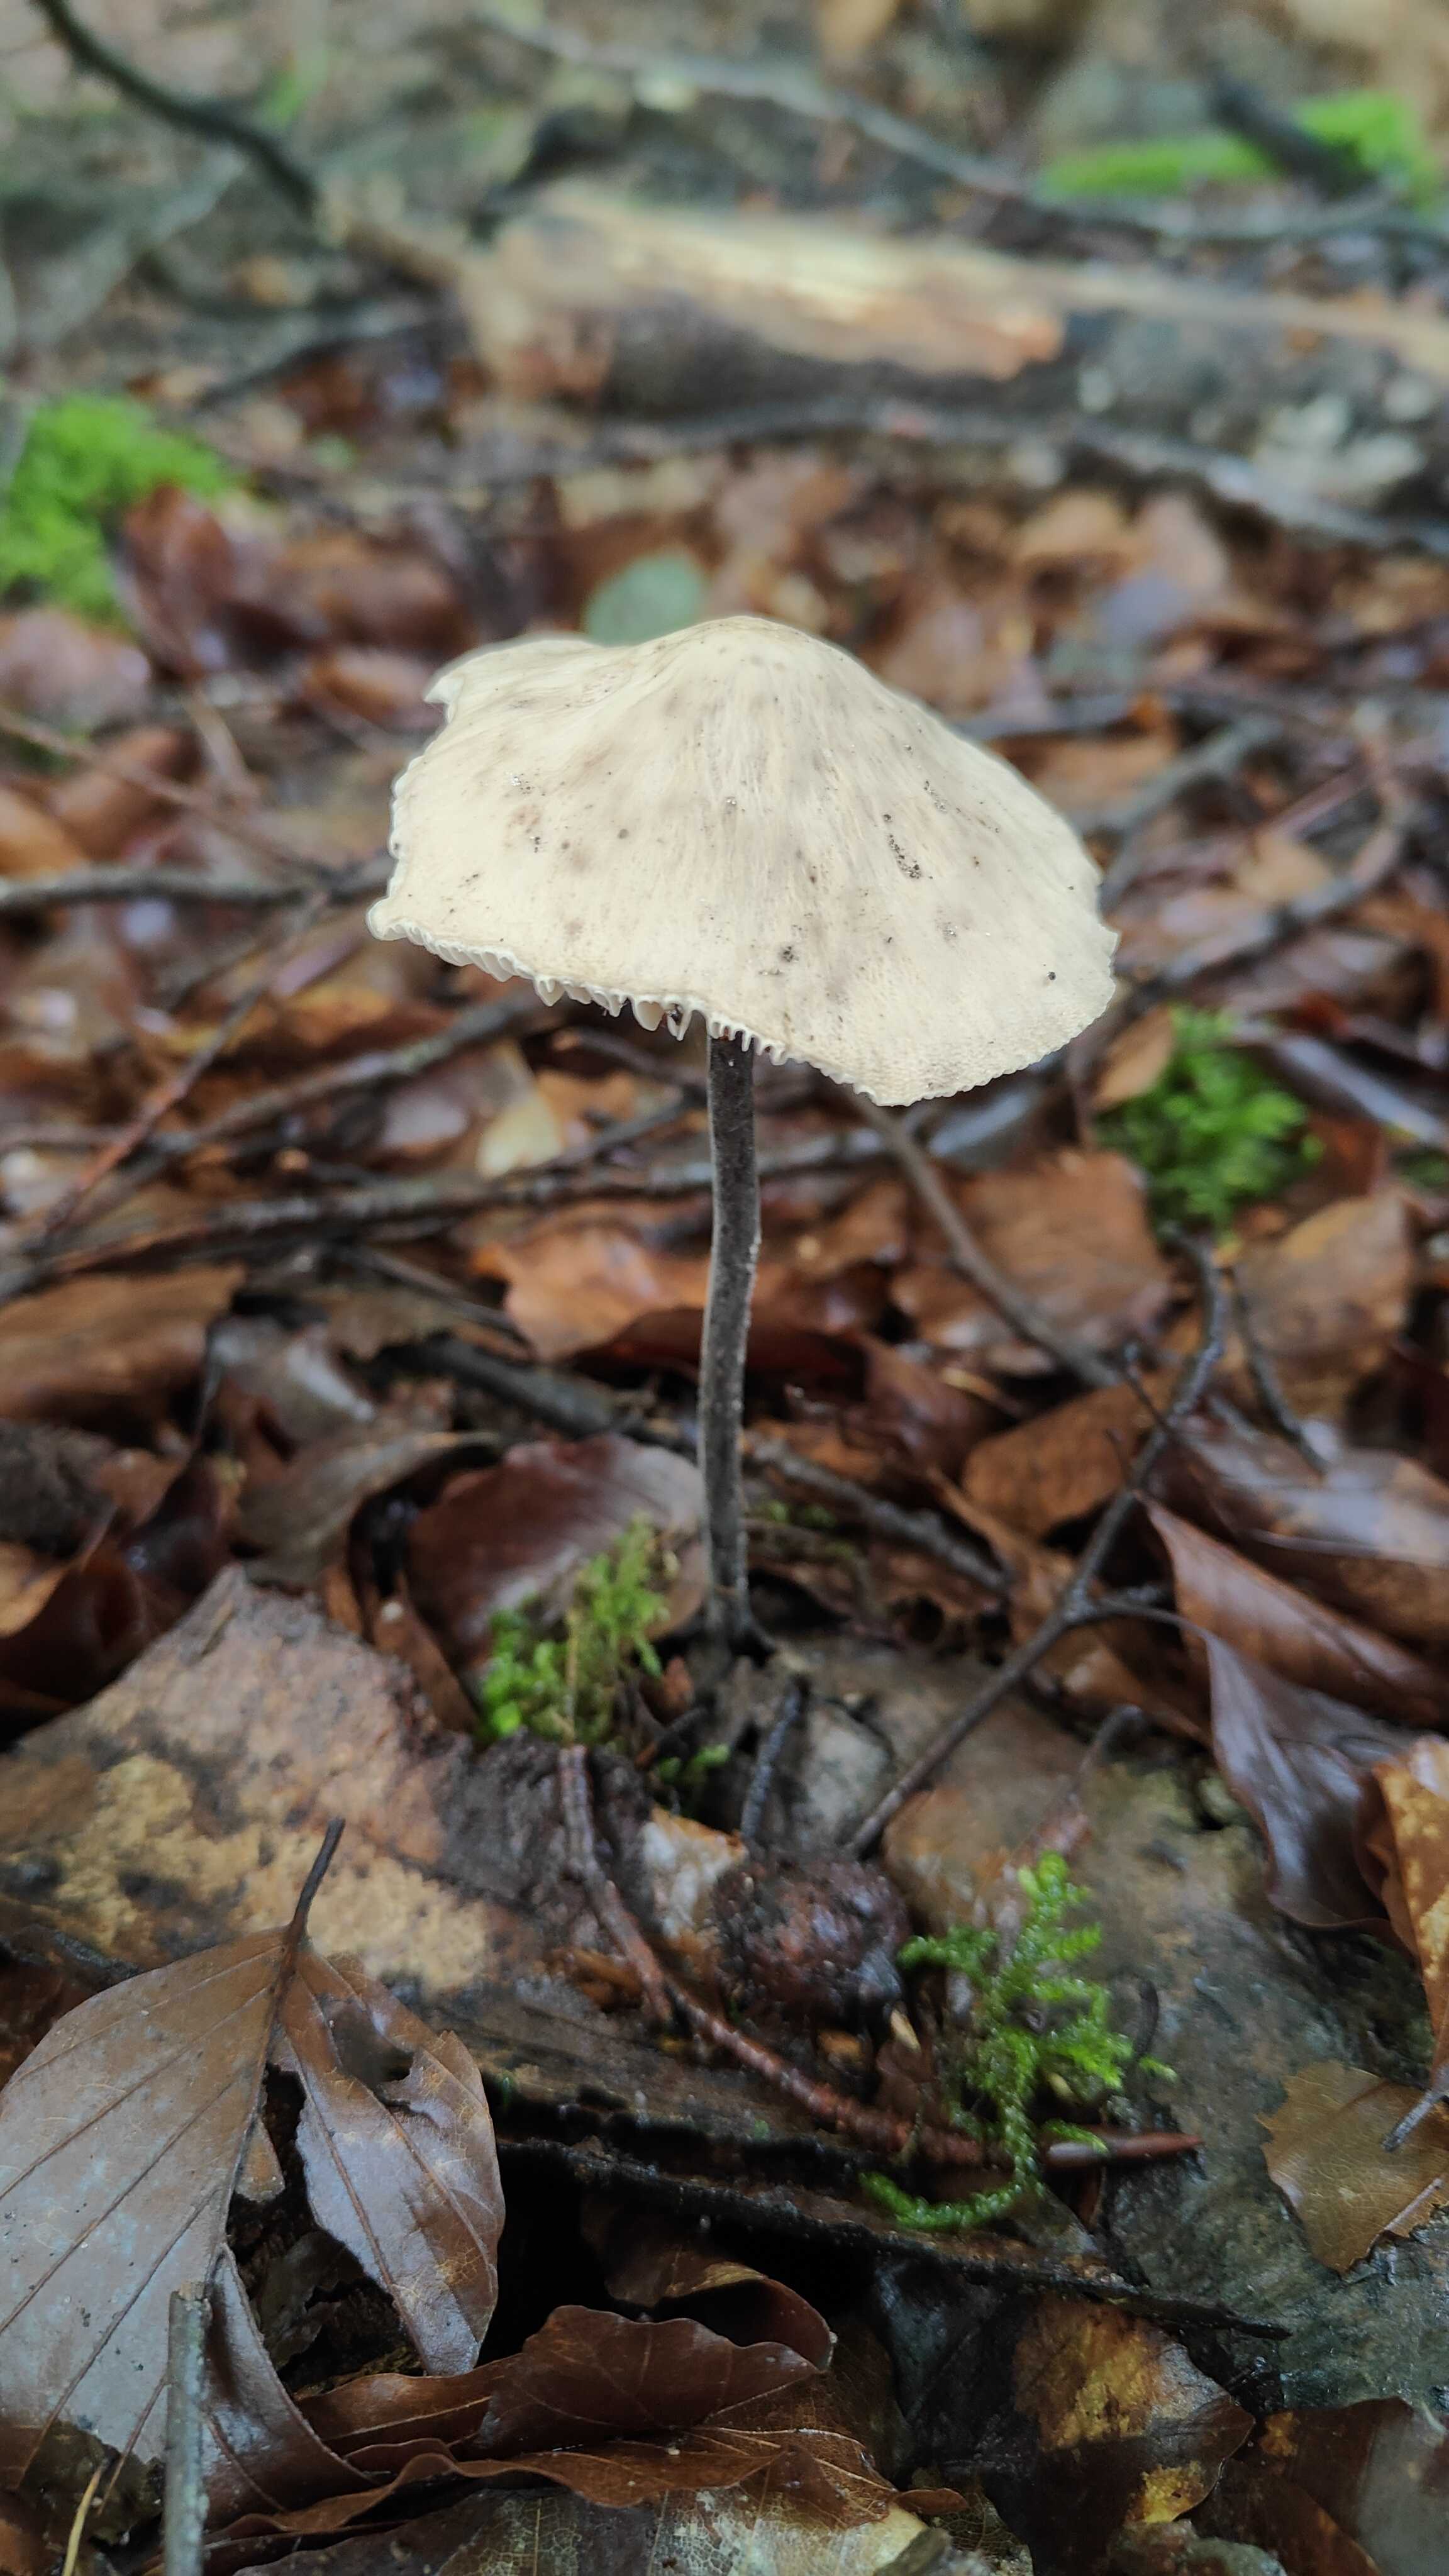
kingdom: Fungi
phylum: Basidiomycota
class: Agaricomycetes
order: Agaricales
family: Omphalotaceae
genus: Mycetinis
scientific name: Mycetinis alliaceus
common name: stor løghat
